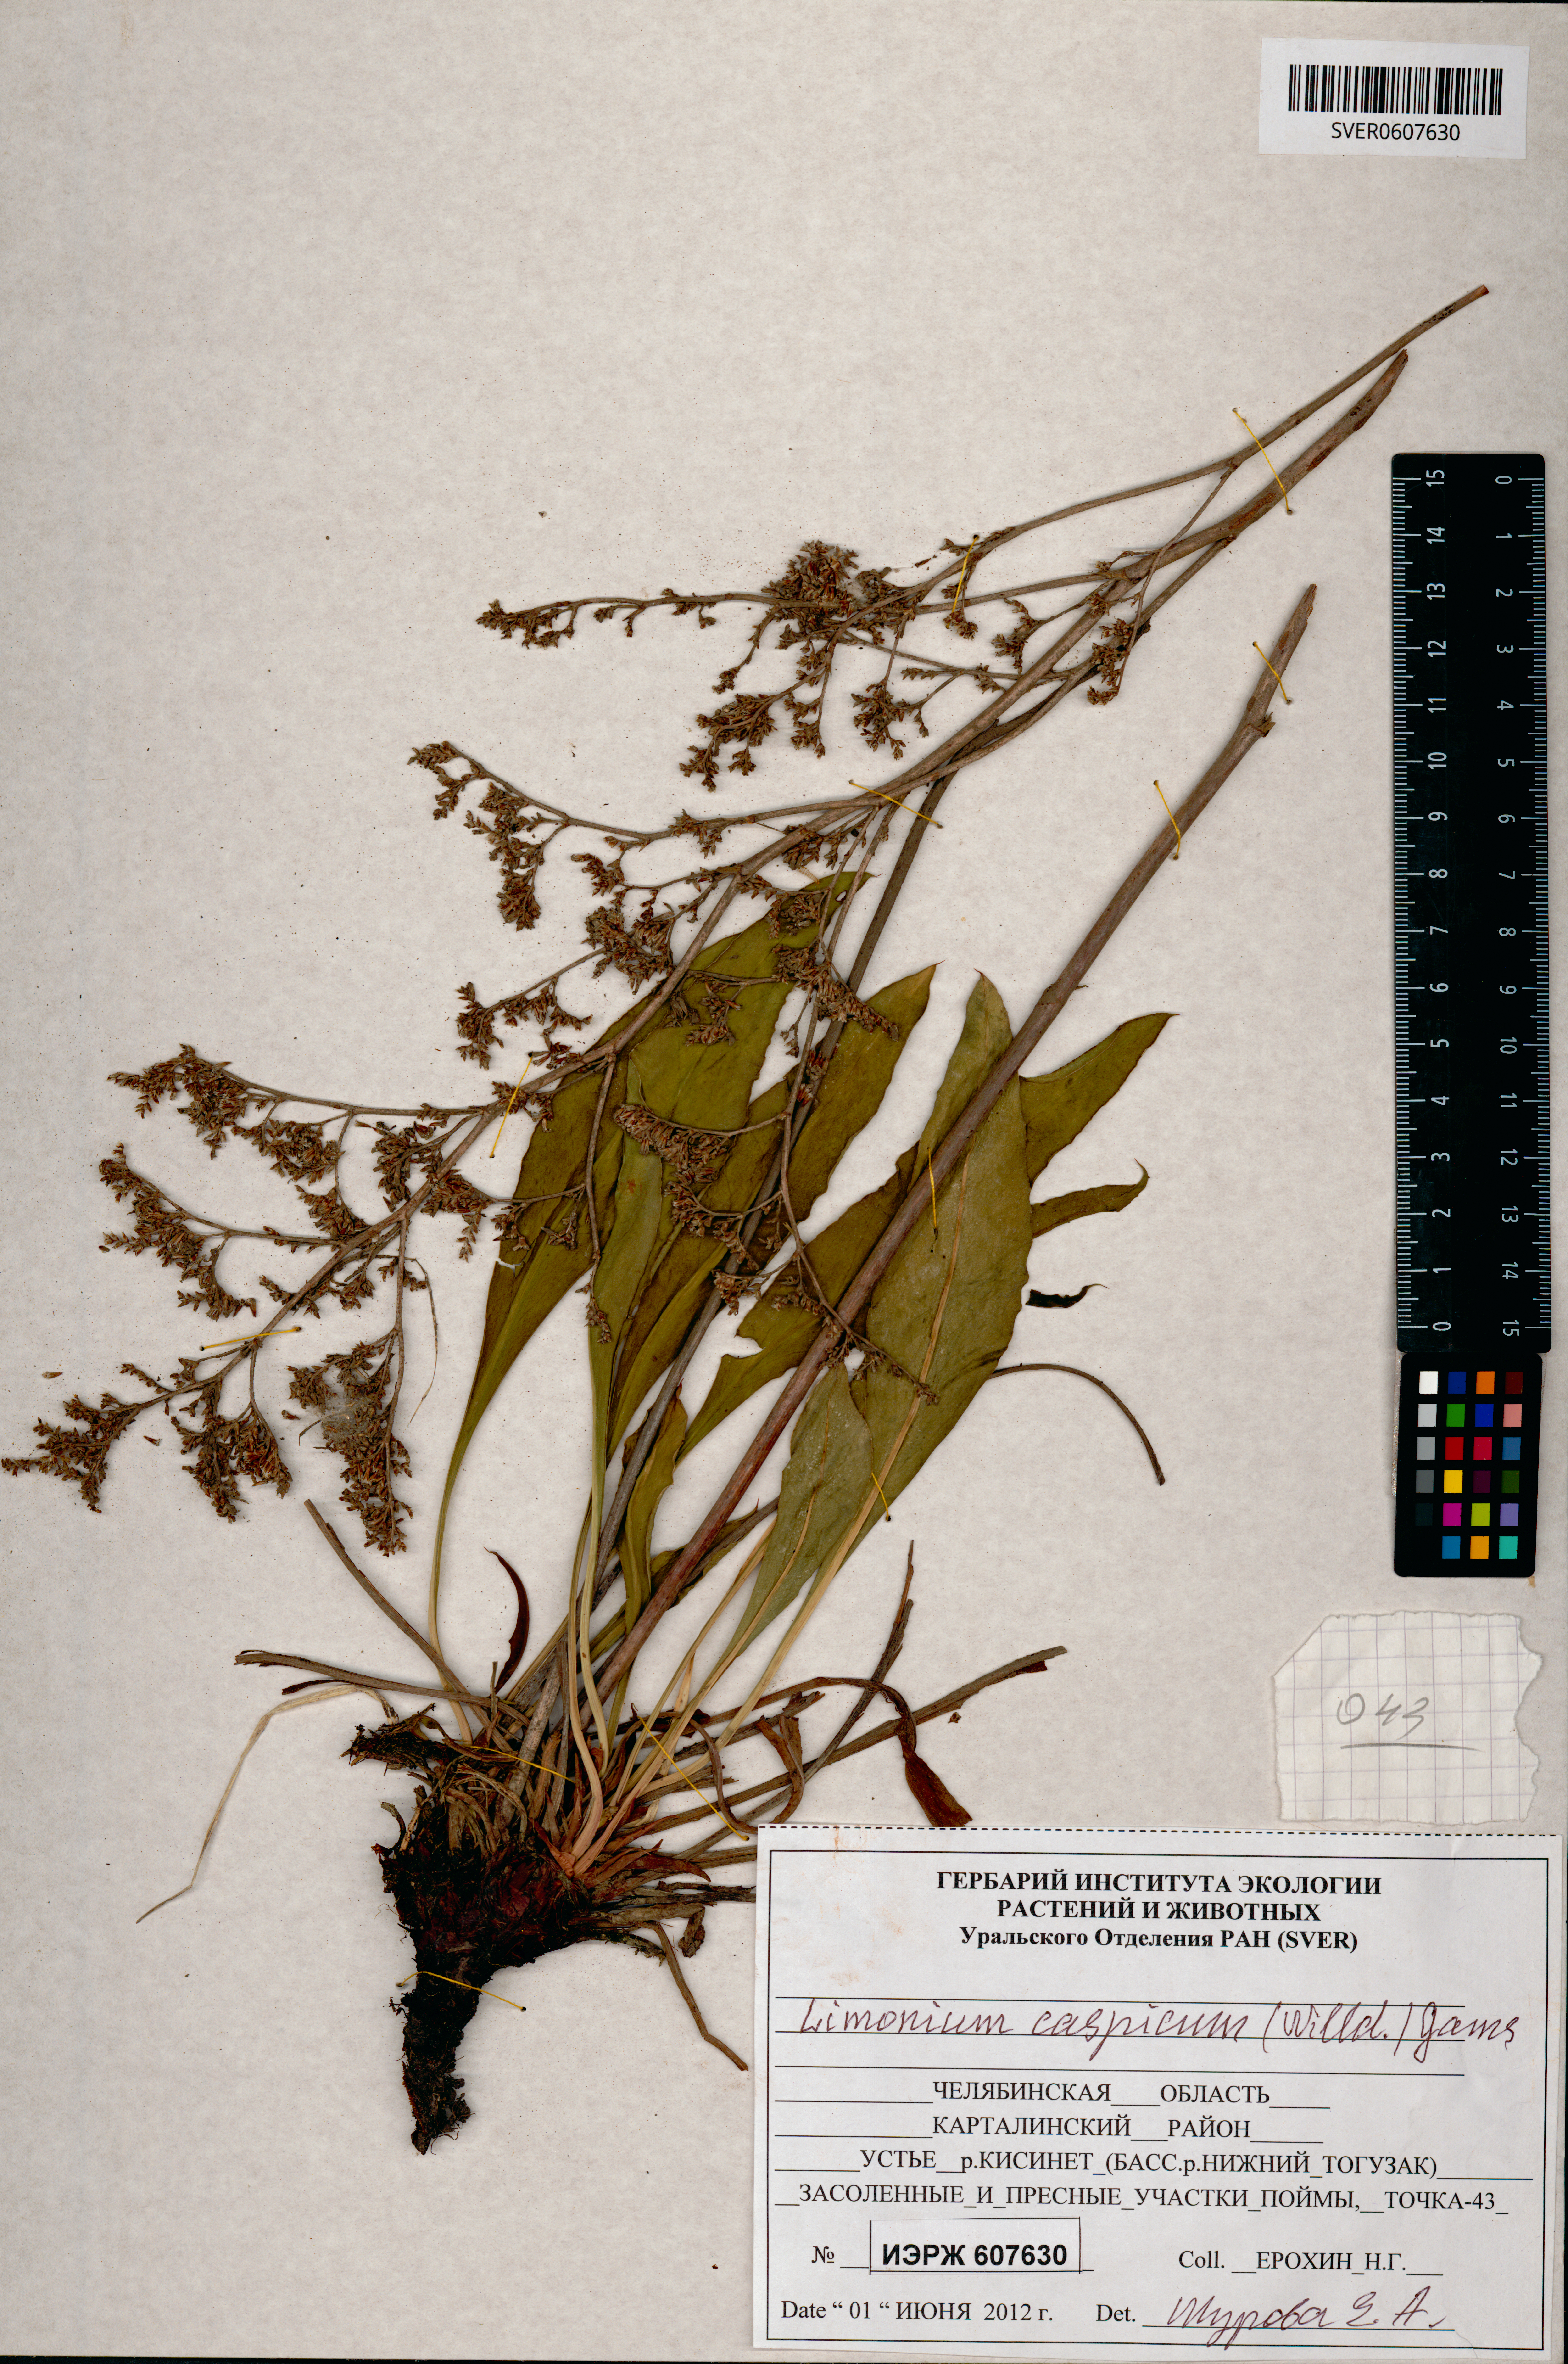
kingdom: Plantae
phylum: Tracheophyta
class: Magnoliopsida
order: Caryophyllales
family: Plumbaginaceae
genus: Limonium
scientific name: Limonium bellidifolium
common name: Matted sea-lavender
